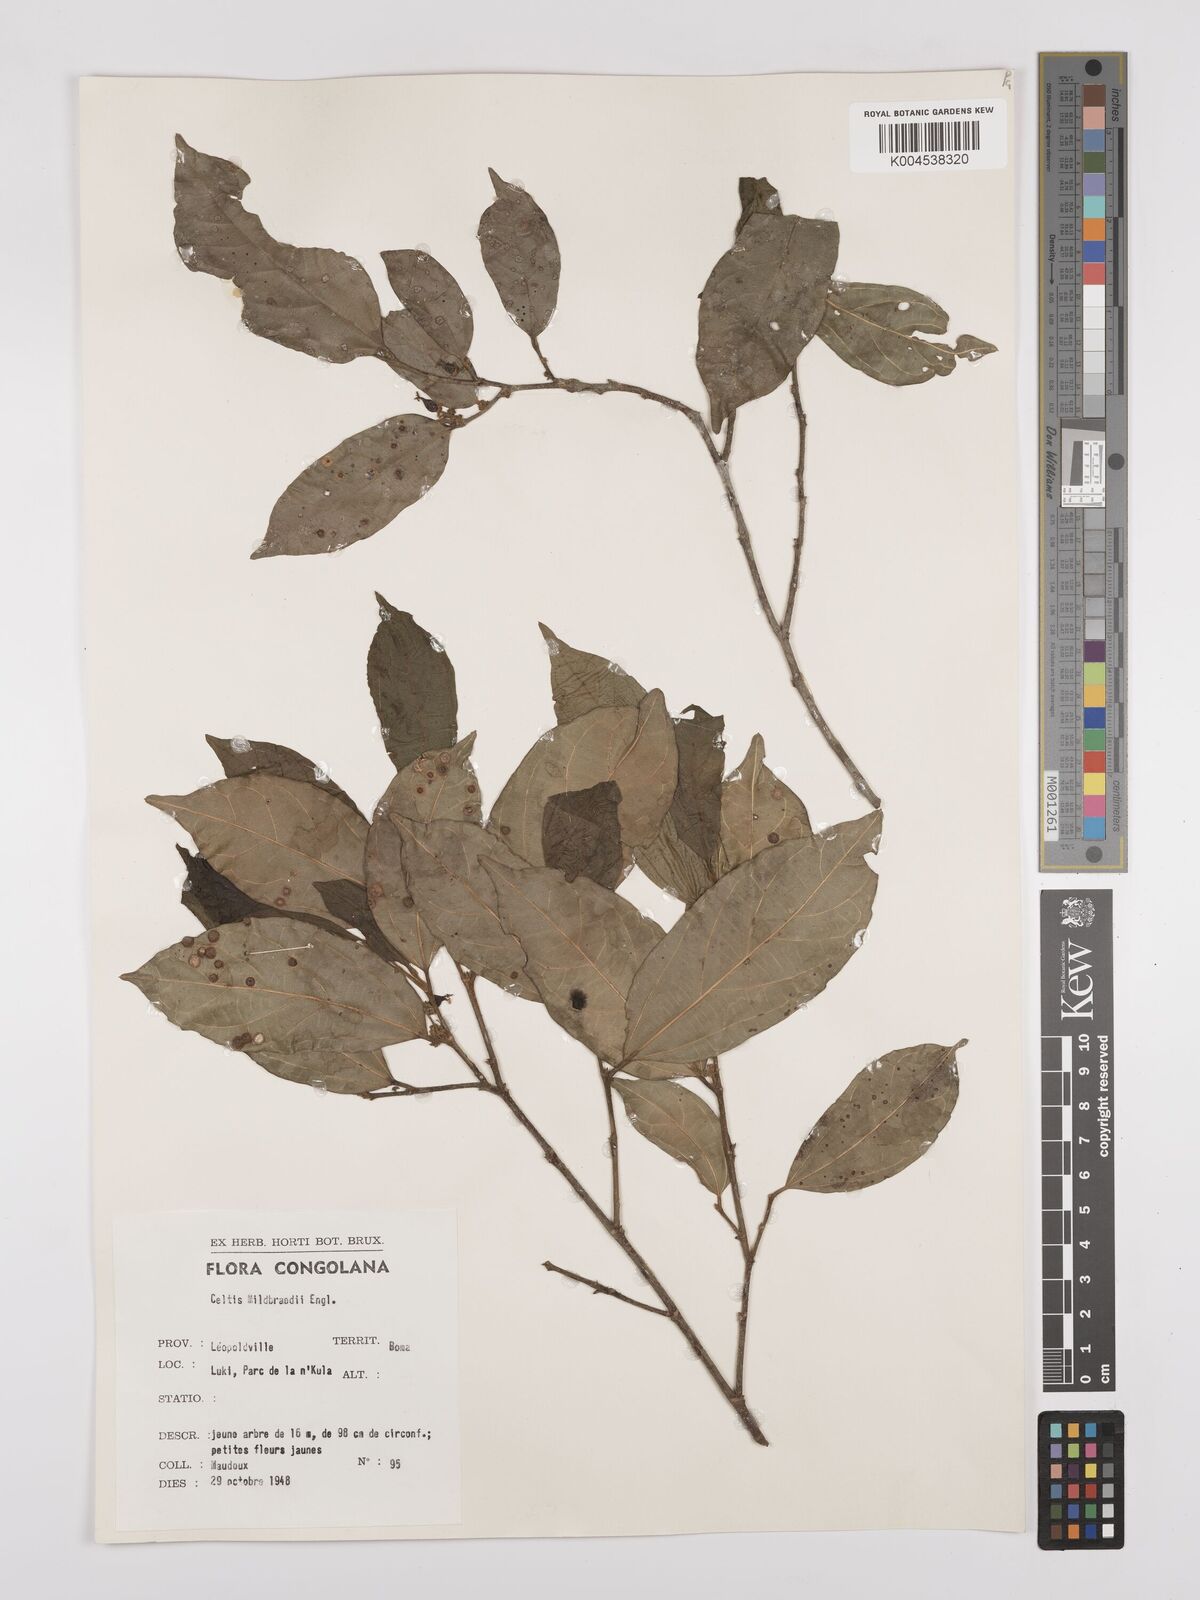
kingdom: Plantae
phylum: Tracheophyta
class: Magnoliopsida
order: Rosales
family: Cannabaceae
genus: Celtis
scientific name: Celtis mildbraedii
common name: Red-fruited stinkwood
